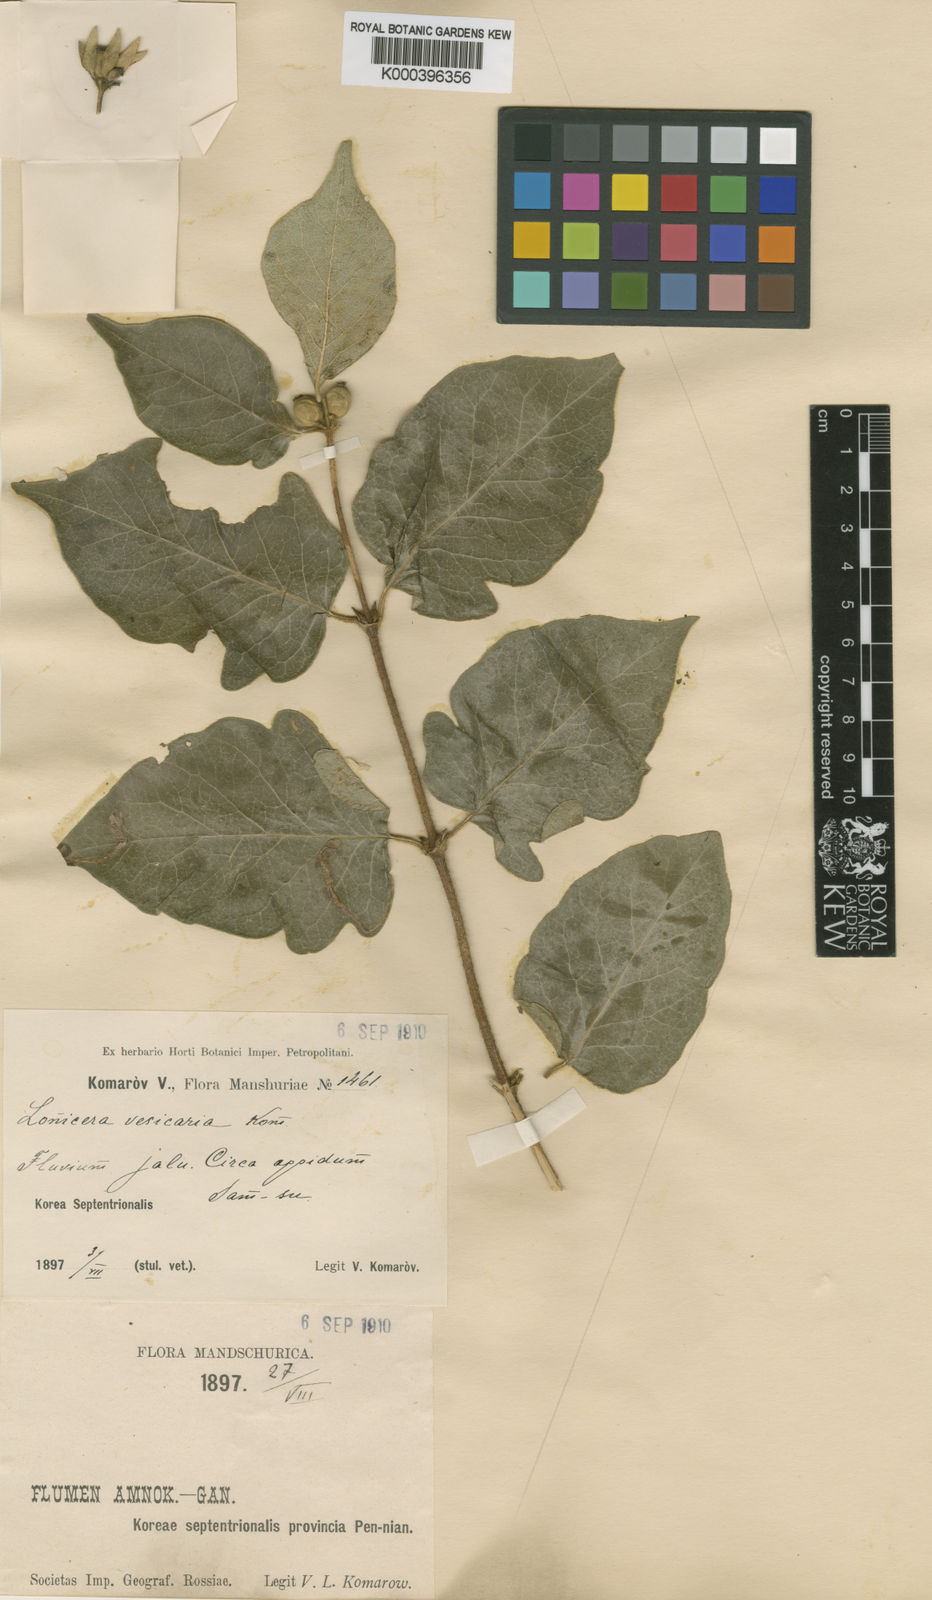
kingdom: Plantae
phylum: Tracheophyta
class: Magnoliopsida
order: Dipsacales
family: Caprifoliaceae
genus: Lonicera
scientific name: Lonicera ferdinandi
